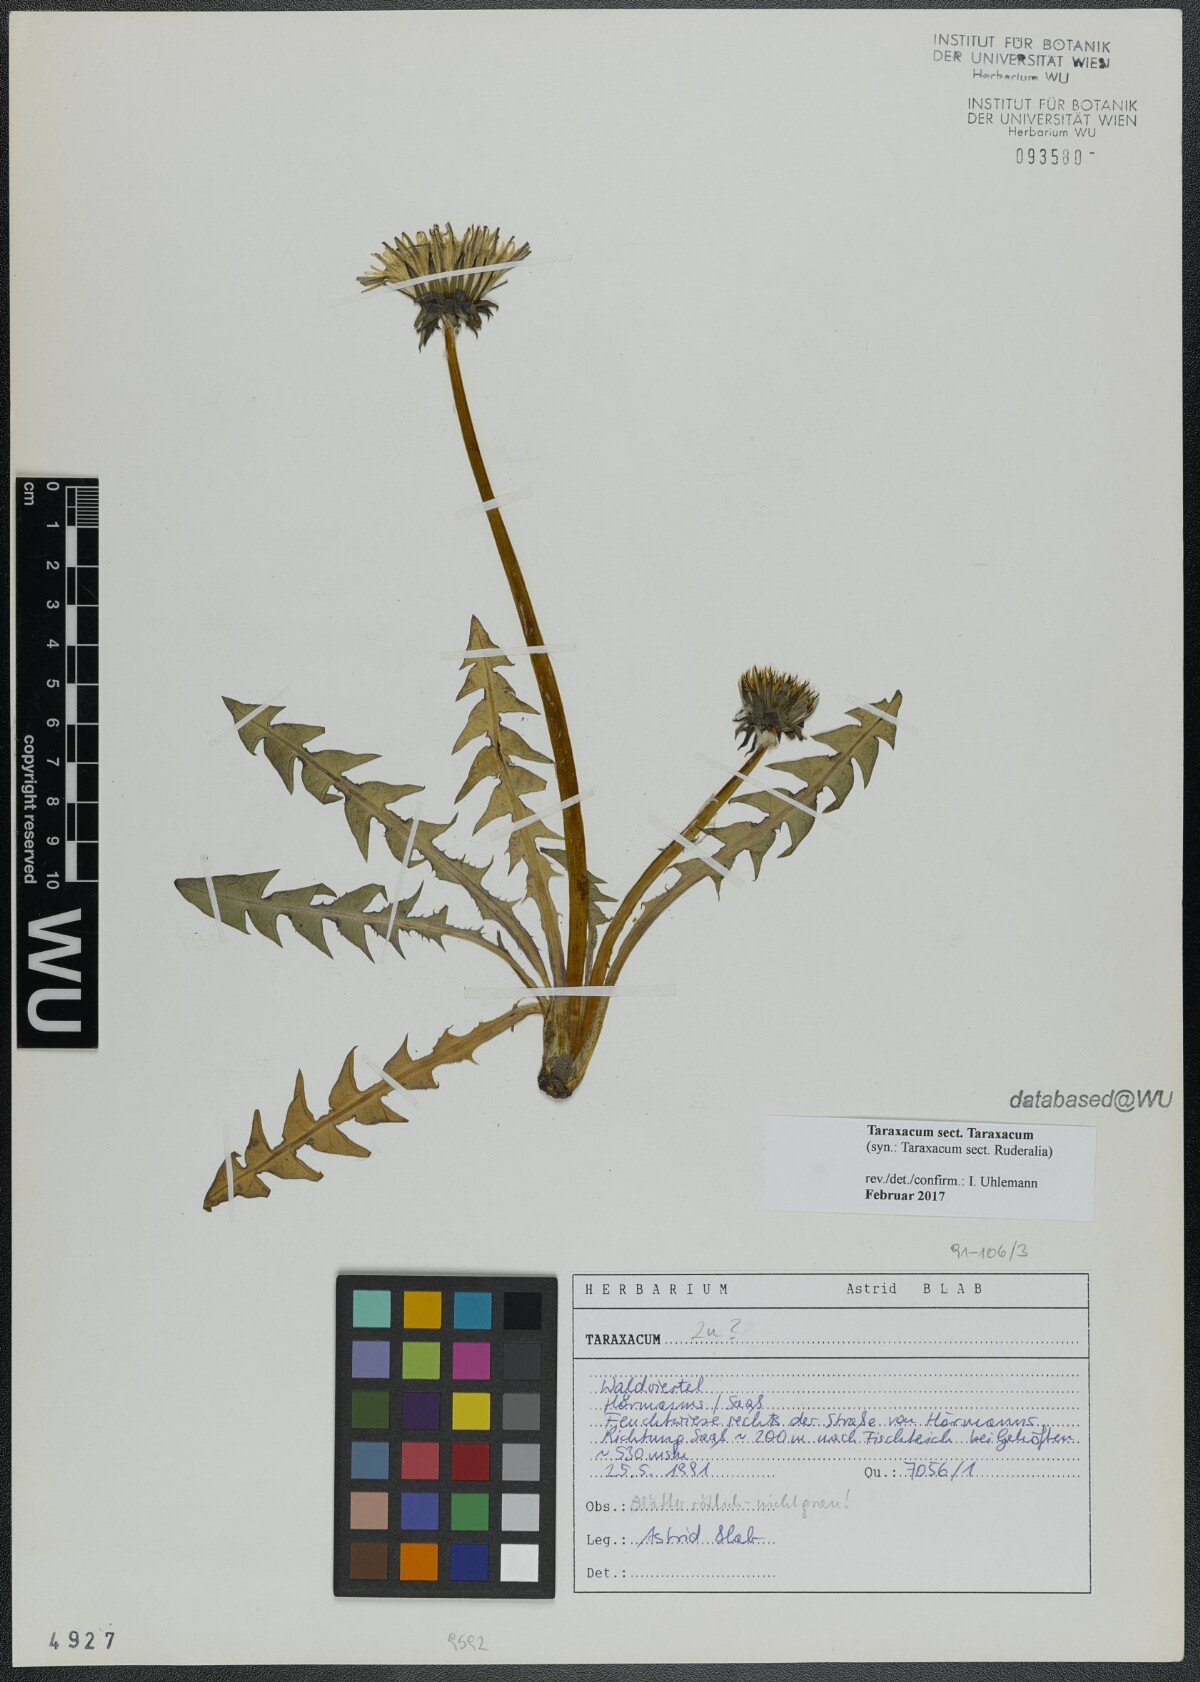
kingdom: Plantae
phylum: Tracheophyta
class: Magnoliopsida
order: Asterales
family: Asteraceae
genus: Taraxacum
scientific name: Taraxacum
